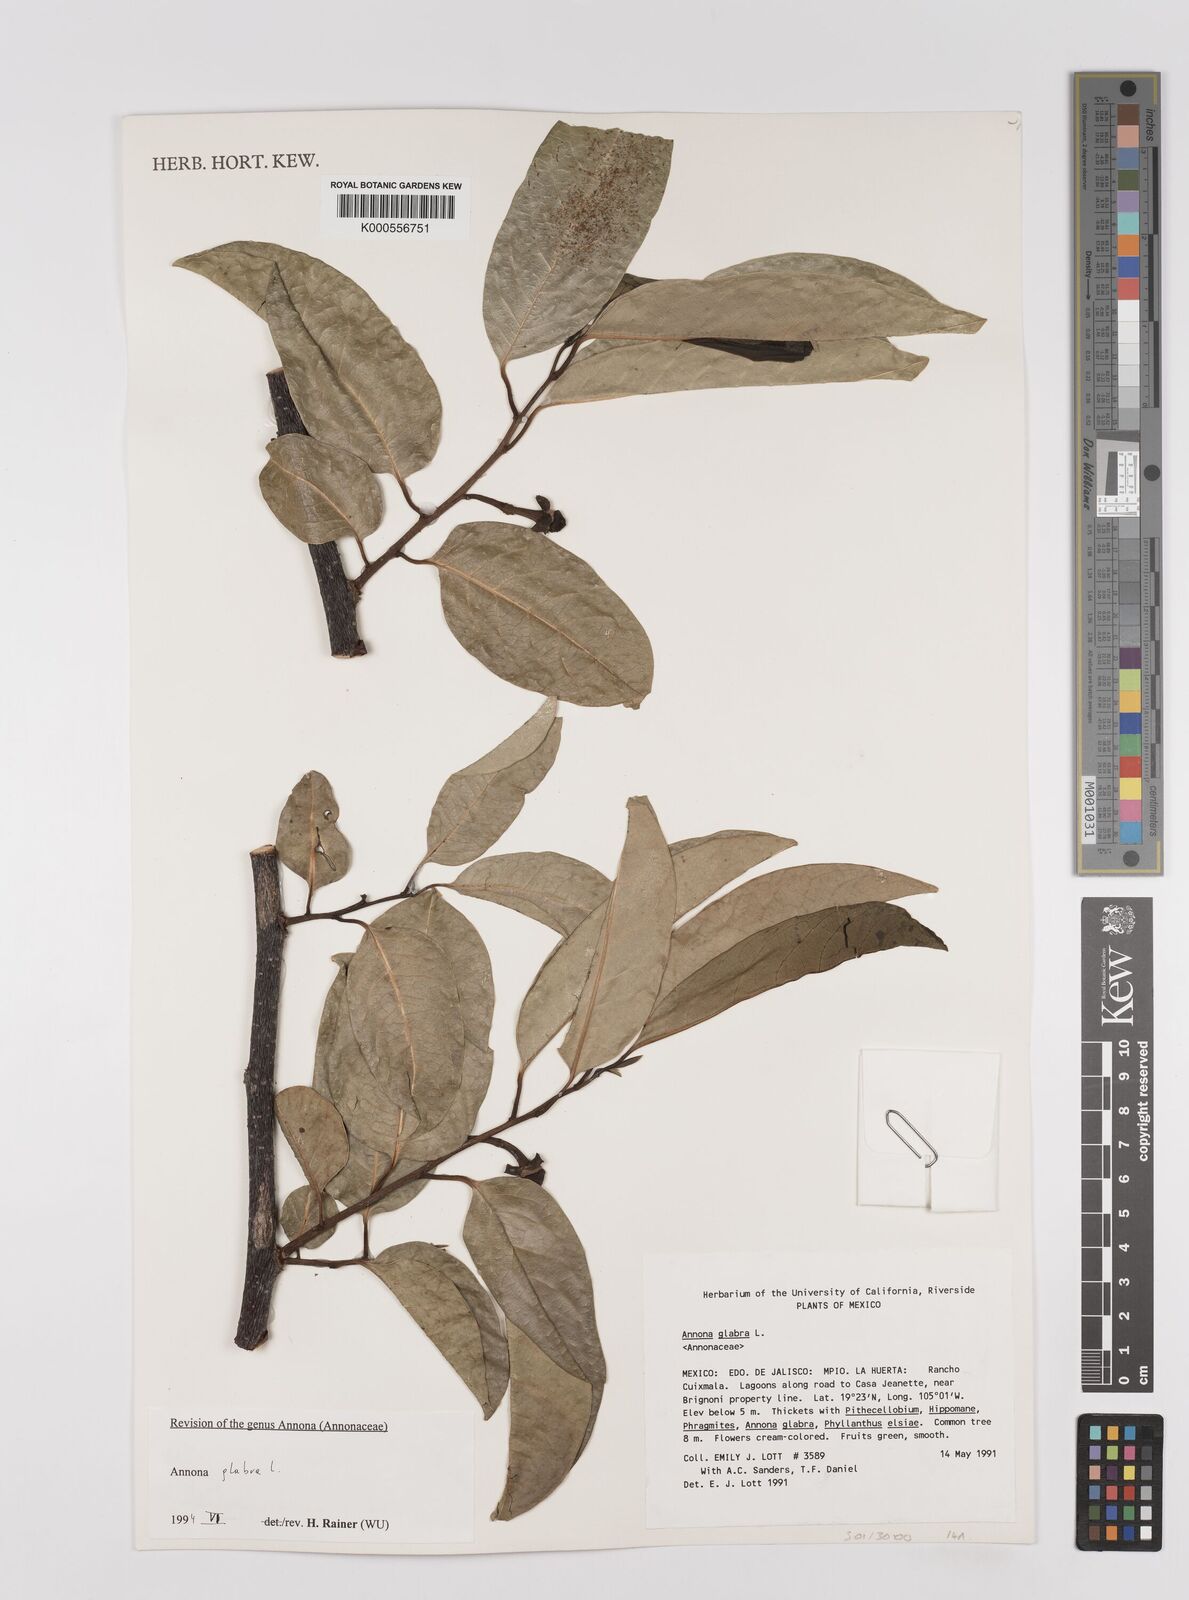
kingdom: Plantae
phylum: Tracheophyta
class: Magnoliopsida
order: Magnoliales
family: Annonaceae
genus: Annona
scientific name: Annona glabra
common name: Monkey apple
